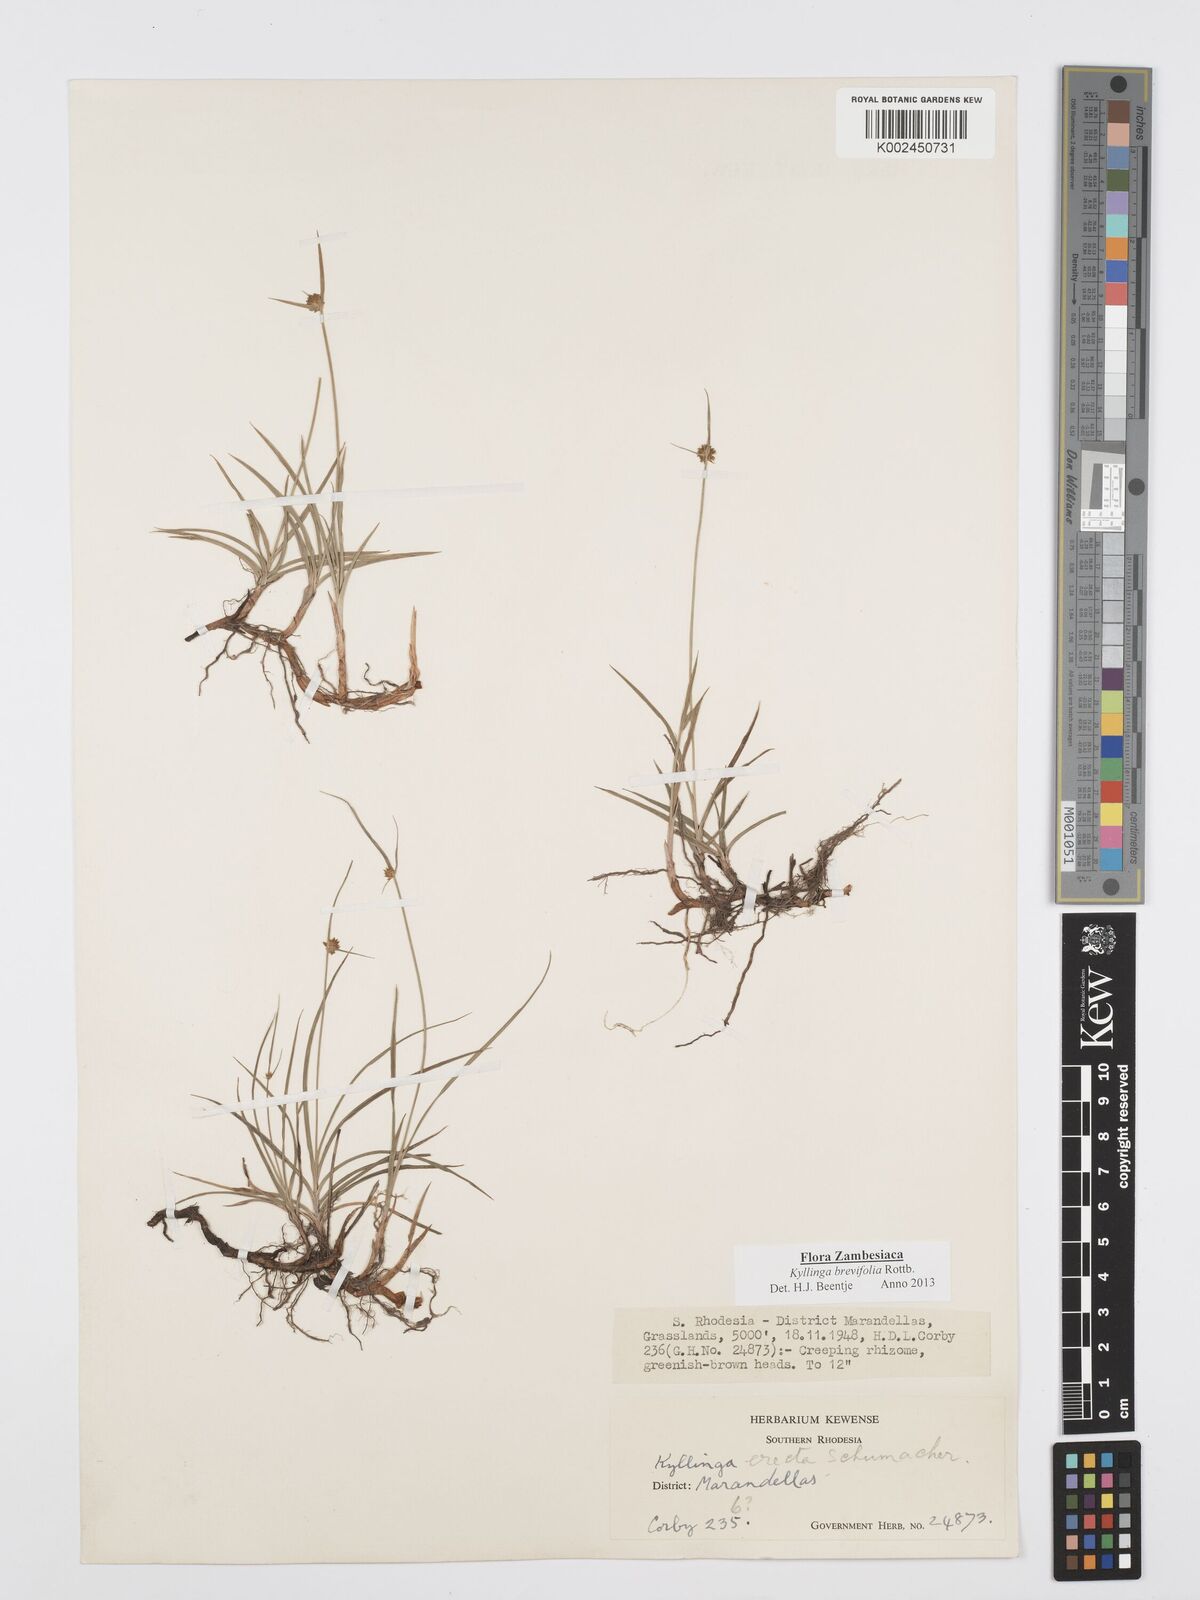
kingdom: Plantae
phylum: Tracheophyta
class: Liliopsida
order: Poales
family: Cyperaceae
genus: Cyperus
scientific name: Cyperus brevifolius
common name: Globe kyllinga
